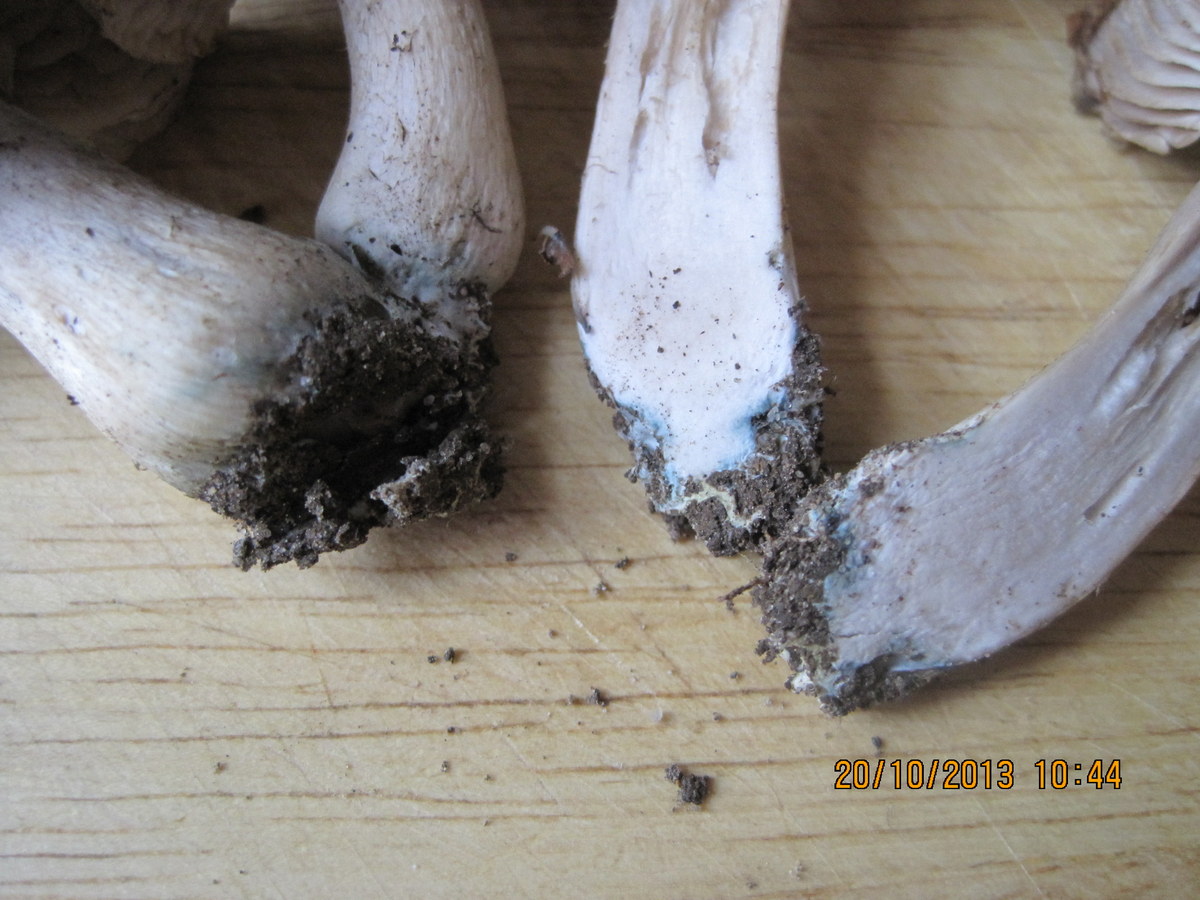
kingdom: Fungi
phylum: Basidiomycota
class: Agaricomycetes
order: Agaricales
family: Tricholomataceae
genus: Tricholoma
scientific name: Tricholoma orirubens
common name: rødbladet ridderhat
